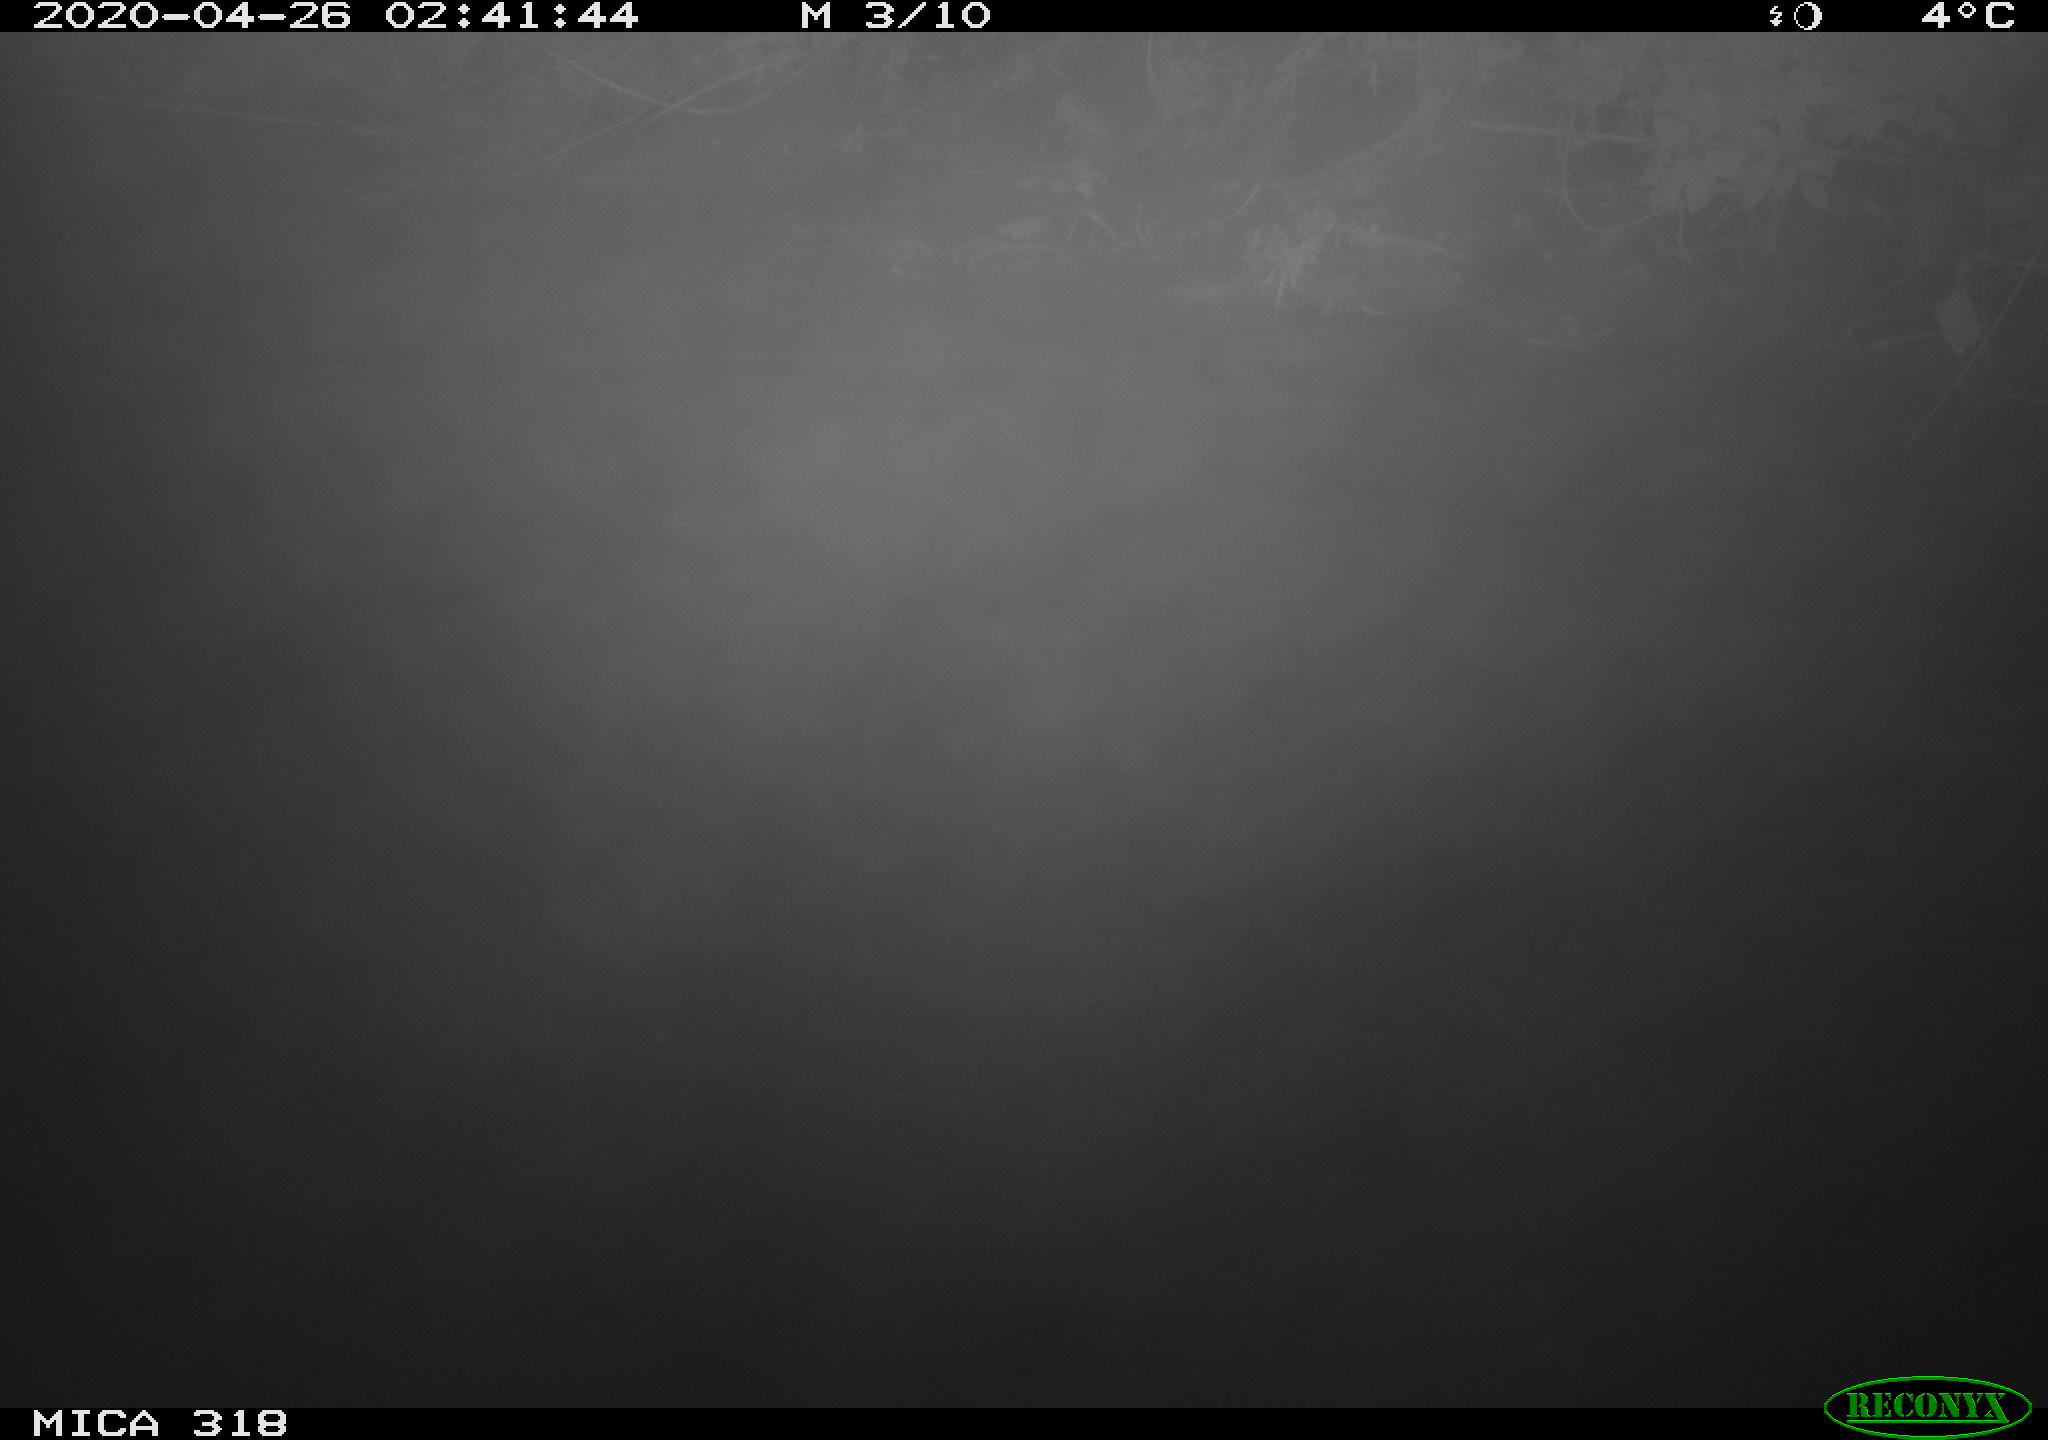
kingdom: Animalia
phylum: Chordata
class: Aves
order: Anseriformes
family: Anatidae
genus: Anas
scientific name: Anas platyrhynchos
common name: Mallard
